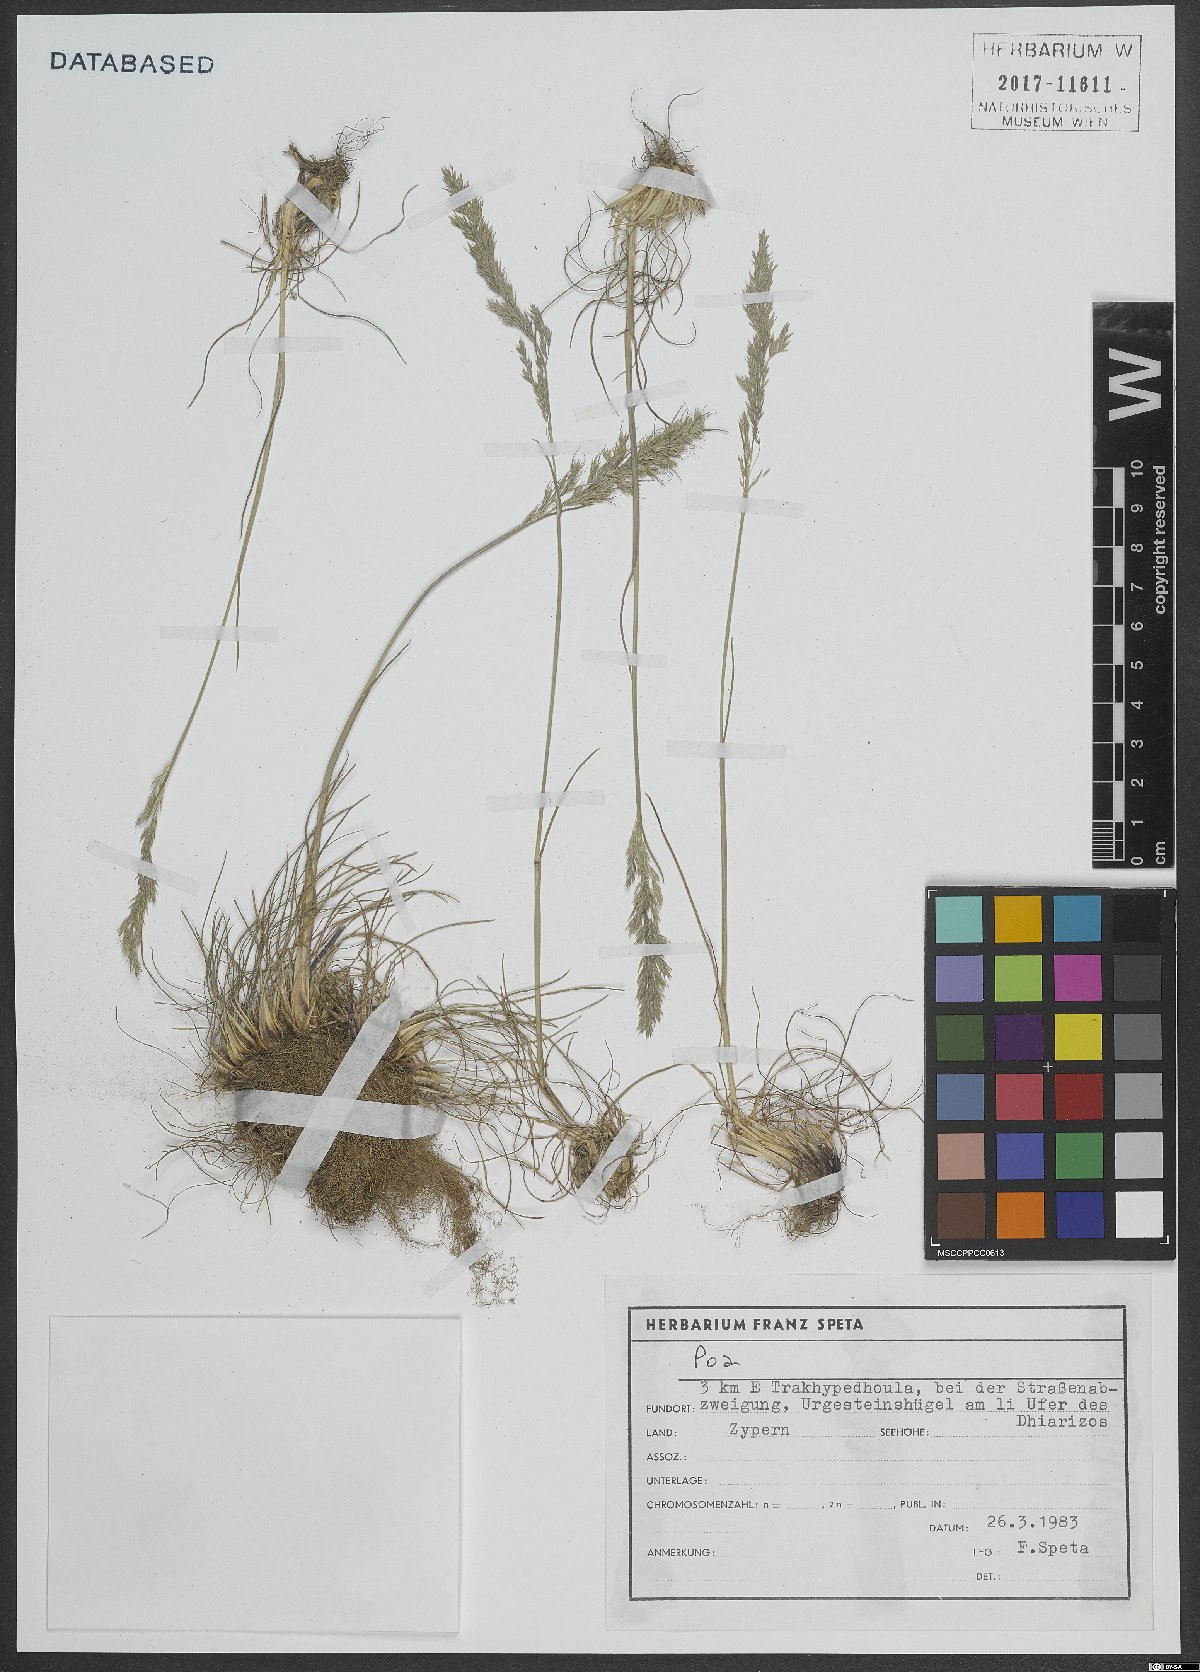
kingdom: Plantae
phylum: Tracheophyta
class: Liliopsida
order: Poales
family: Poaceae
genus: Poa
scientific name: Poa
